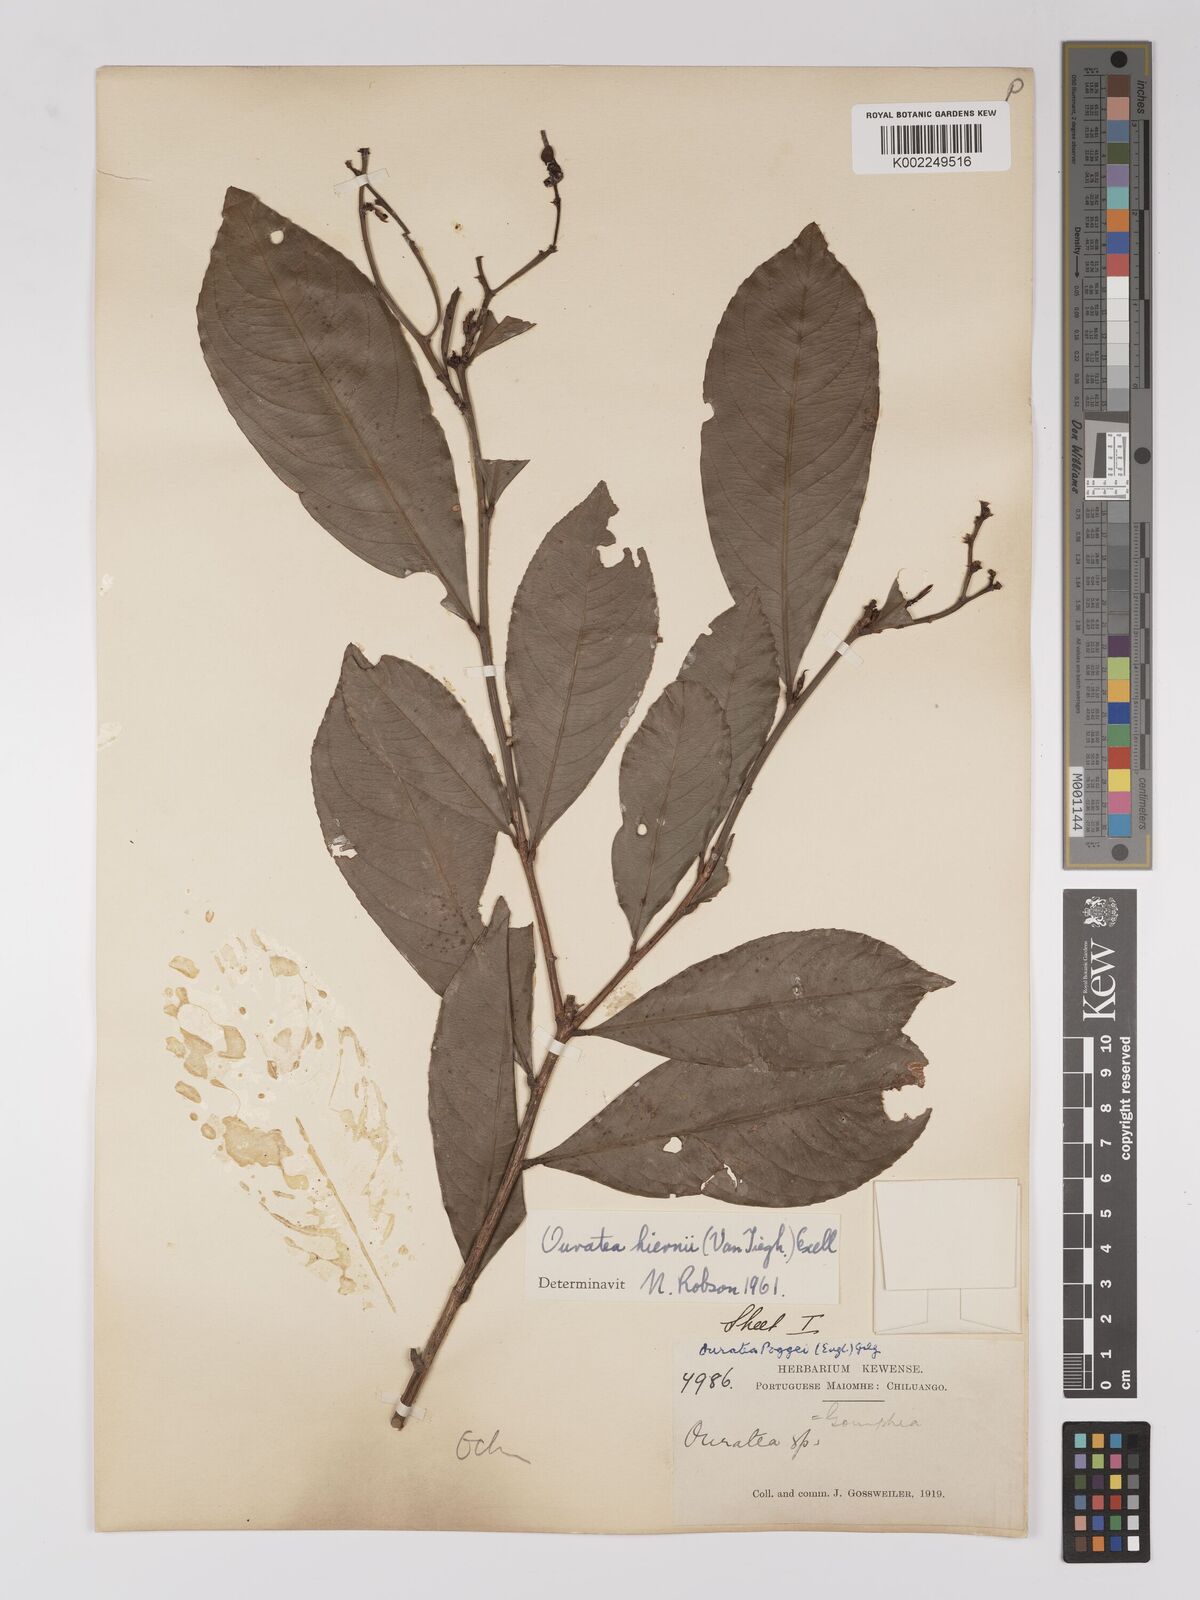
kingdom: Plantae
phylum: Tracheophyta
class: Magnoliopsida
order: Malpighiales
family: Ochnaceae
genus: Campylospermum
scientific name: Campylospermum vogelii
